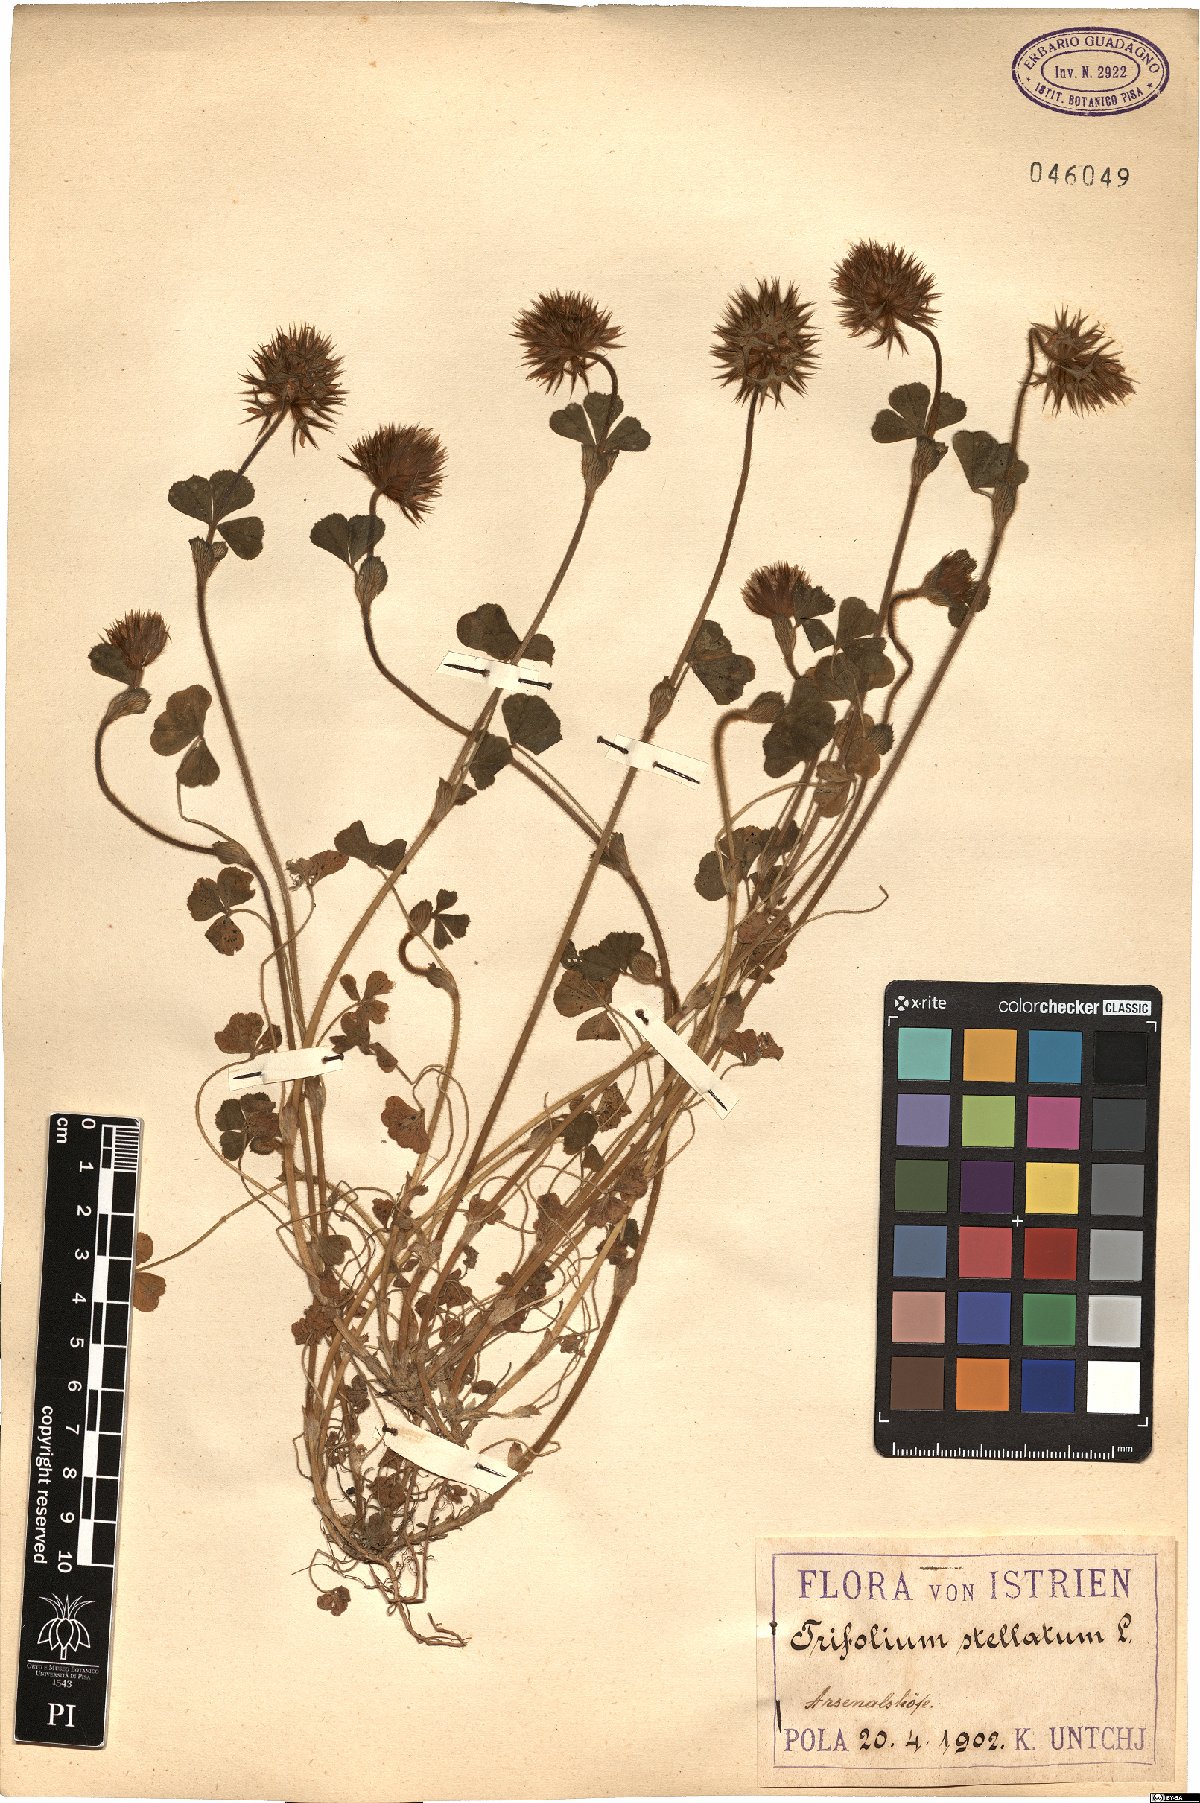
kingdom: Plantae
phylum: Tracheophyta
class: Magnoliopsida
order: Fabales
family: Fabaceae
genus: Trifolium
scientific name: Trifolium stellatum
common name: Starry clover
